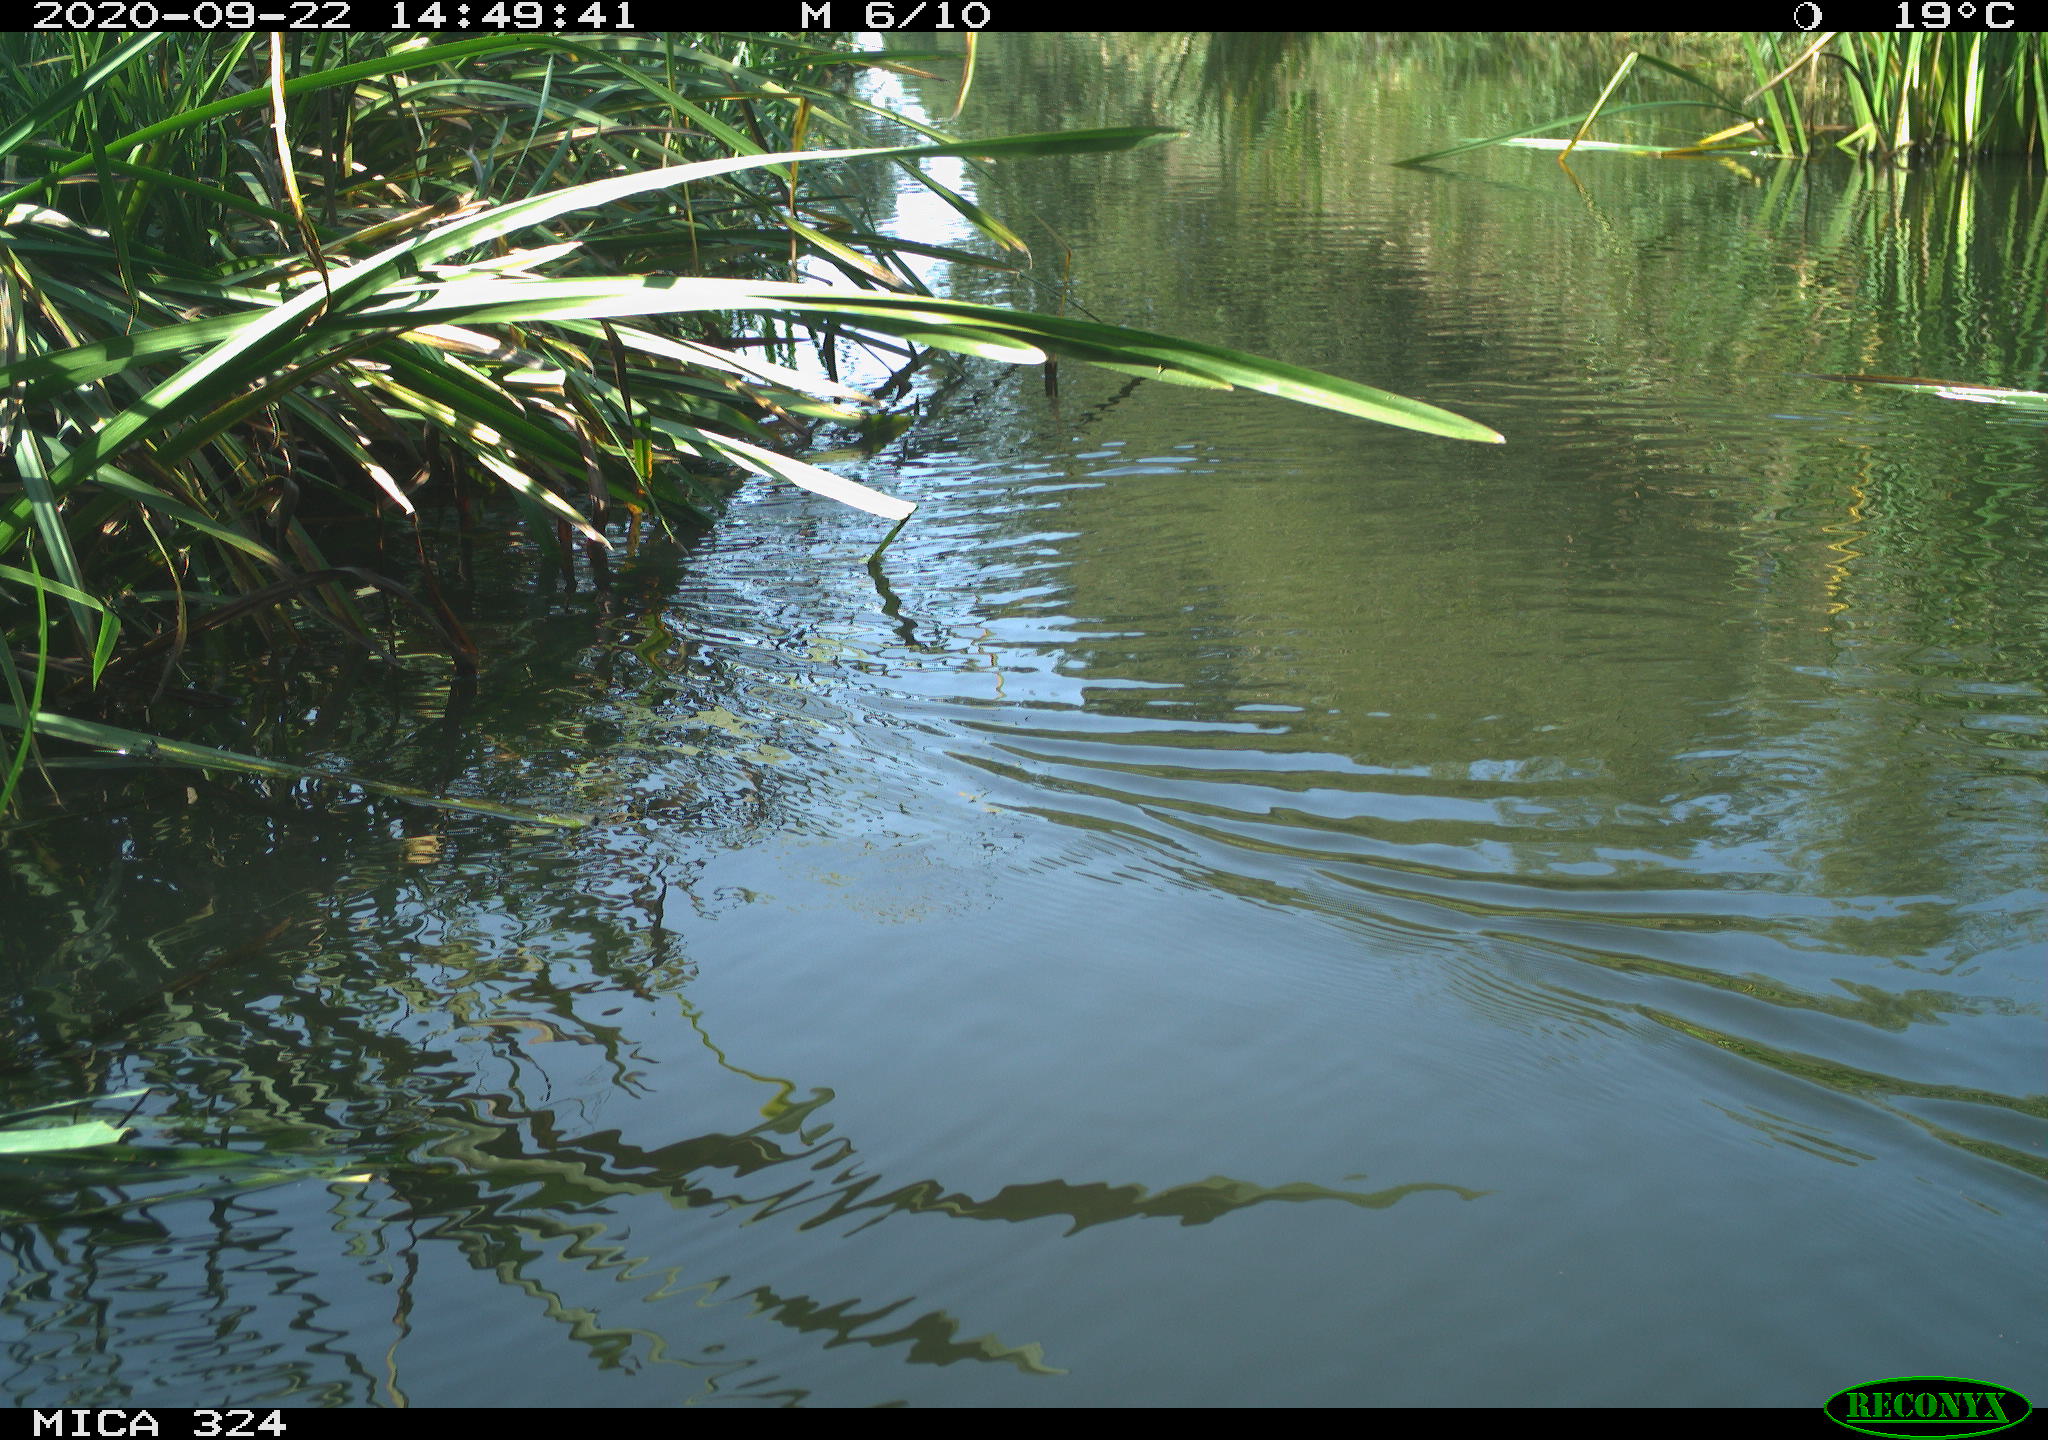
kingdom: Animalia
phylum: Chordata
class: Aves
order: Gruiformes
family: Rallidae
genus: Gallinula
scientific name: Gallinula chloropus
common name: Common moorhen
